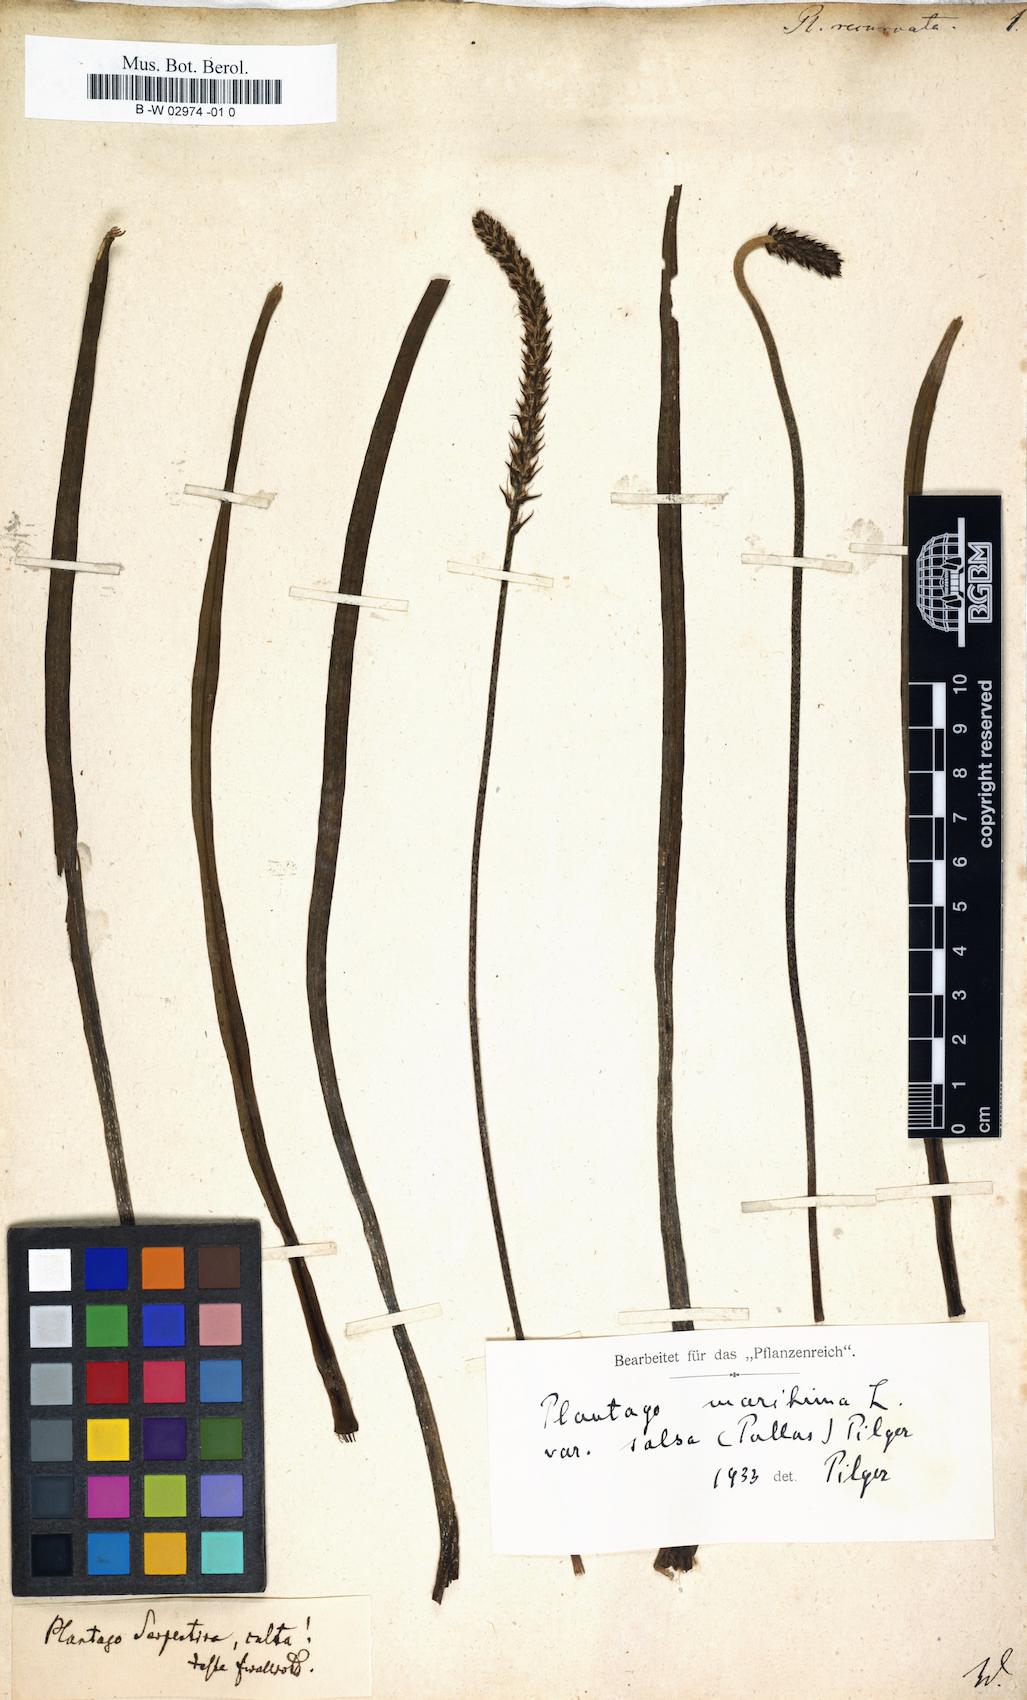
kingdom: Plantae
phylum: Tracheophyta
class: Magnoliopsida
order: Lamiales
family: Plantaginaceae
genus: Plantago
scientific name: Plantago
